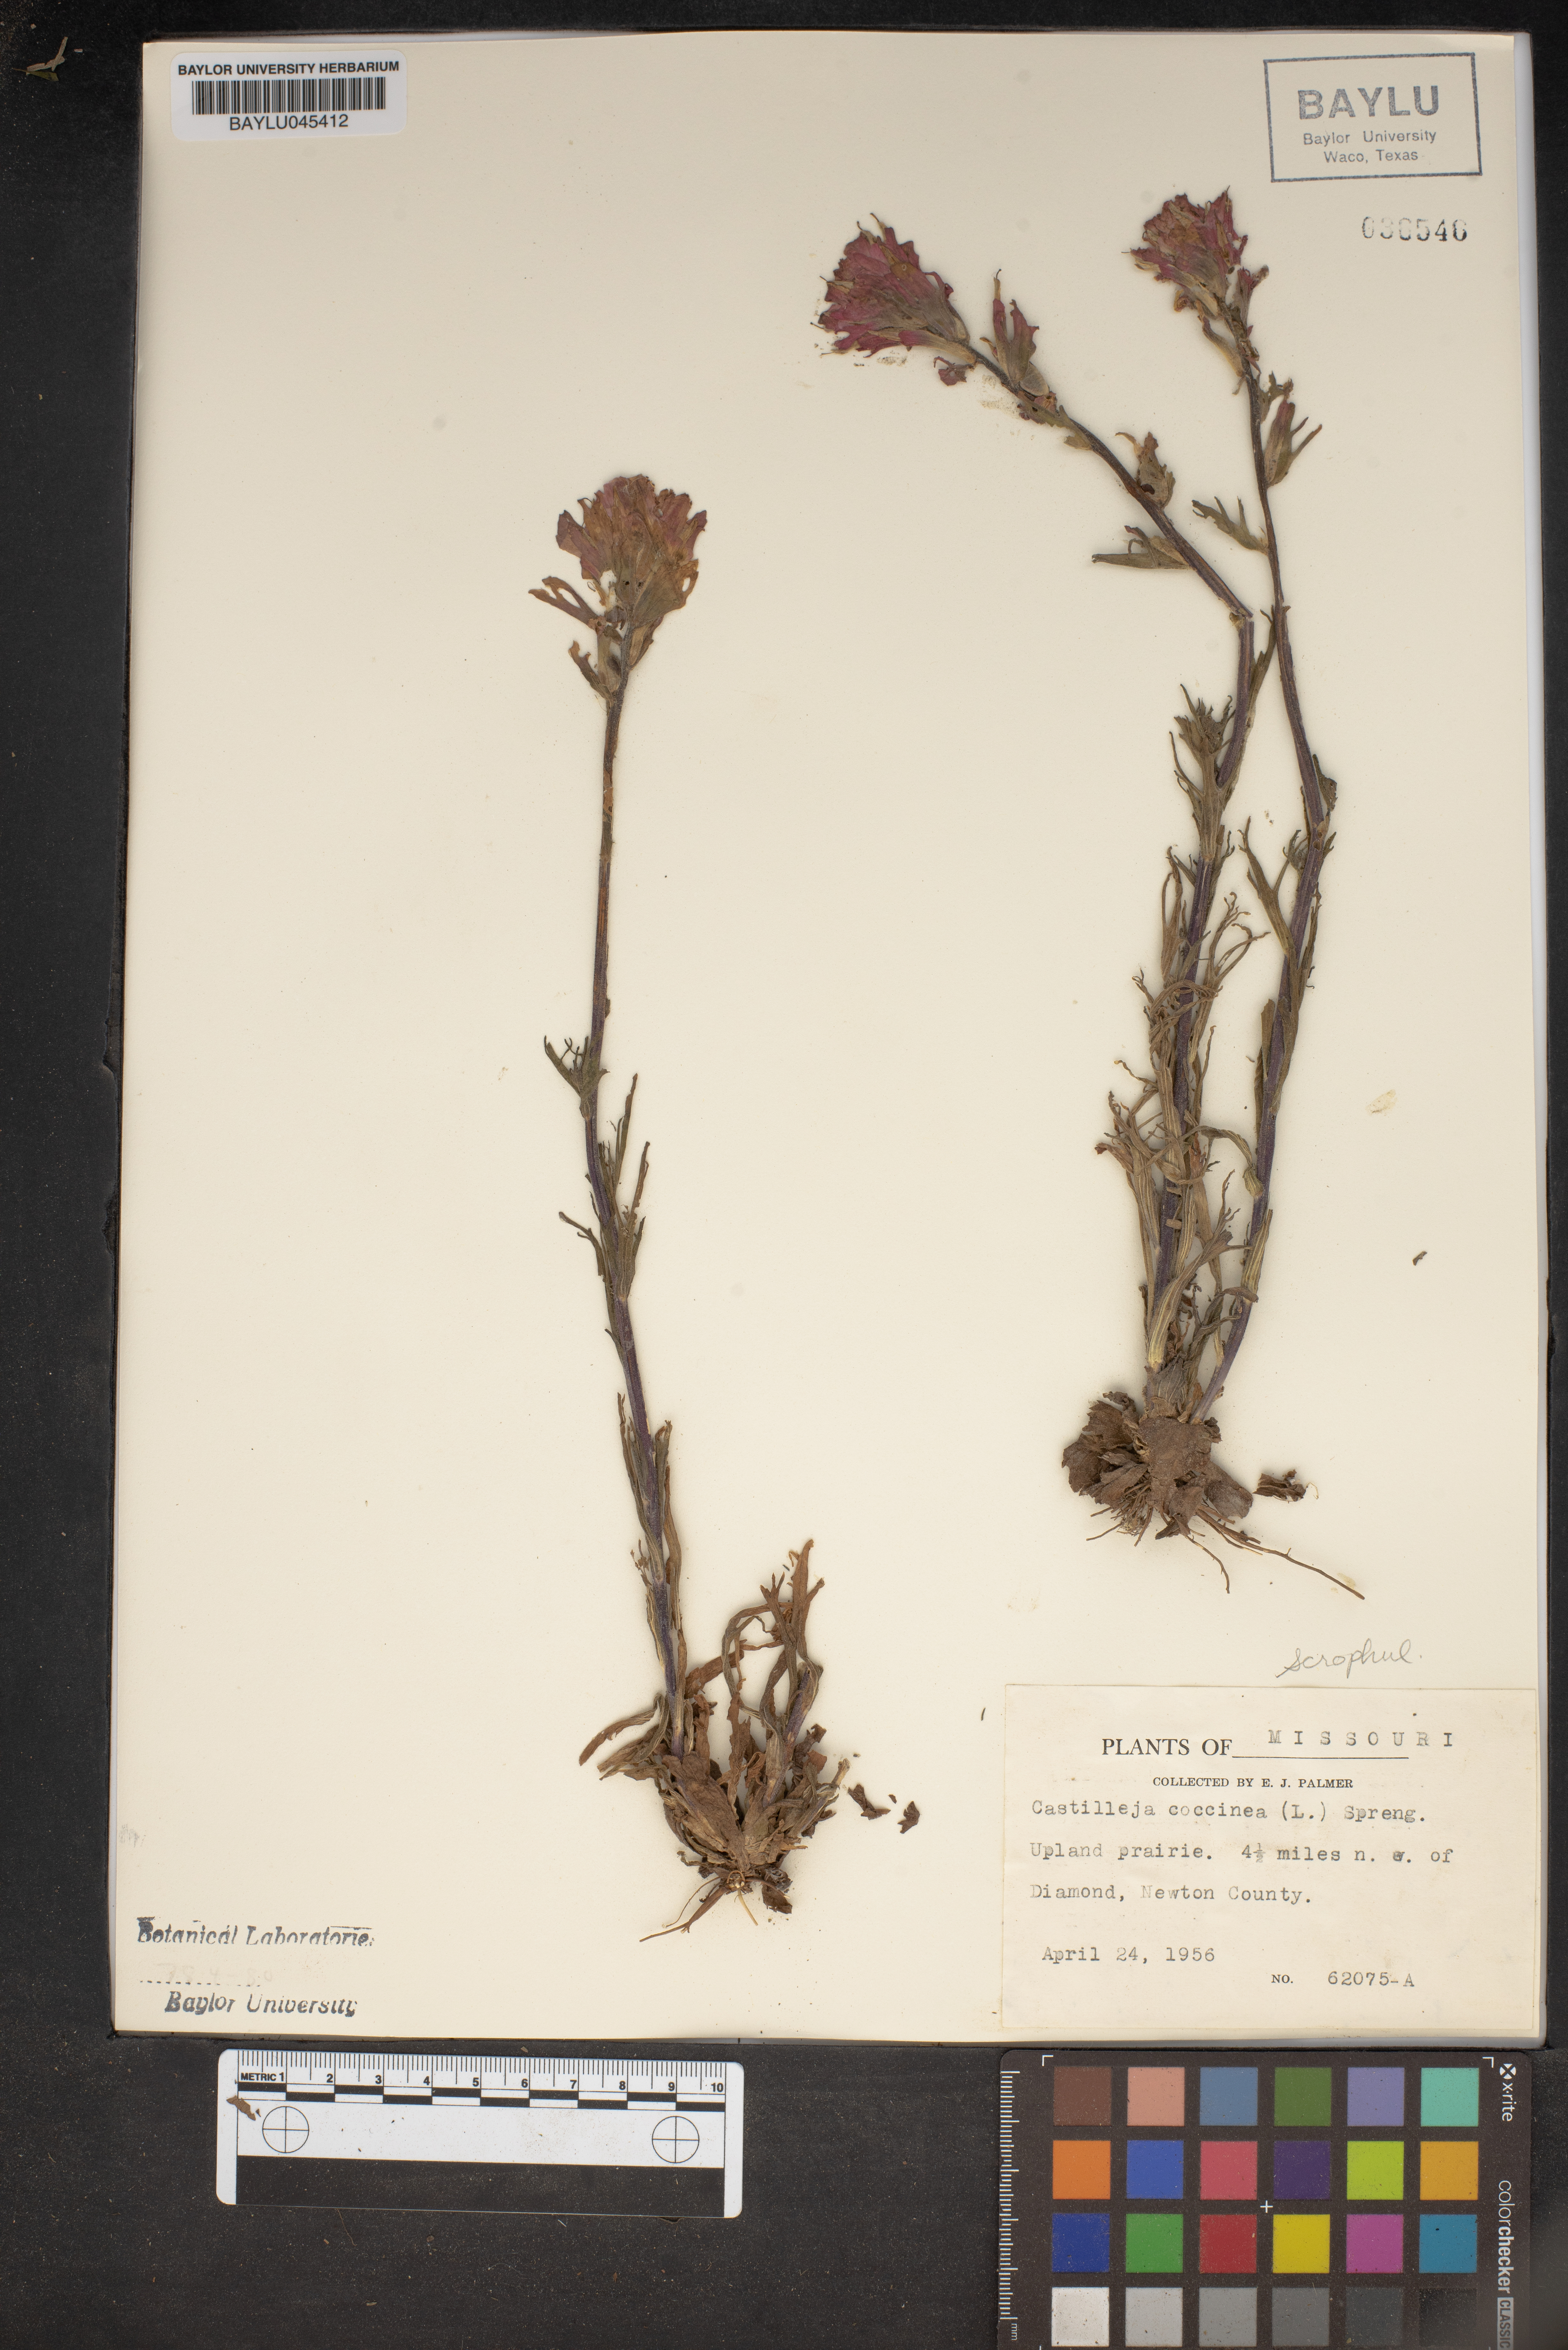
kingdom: Plantae
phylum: Tracheophyta
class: Magnoliopsida
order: Lamiales
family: Orobanchaceae
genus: Castilleja
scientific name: Castilleja coccinea
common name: Scarlet paintbrush
